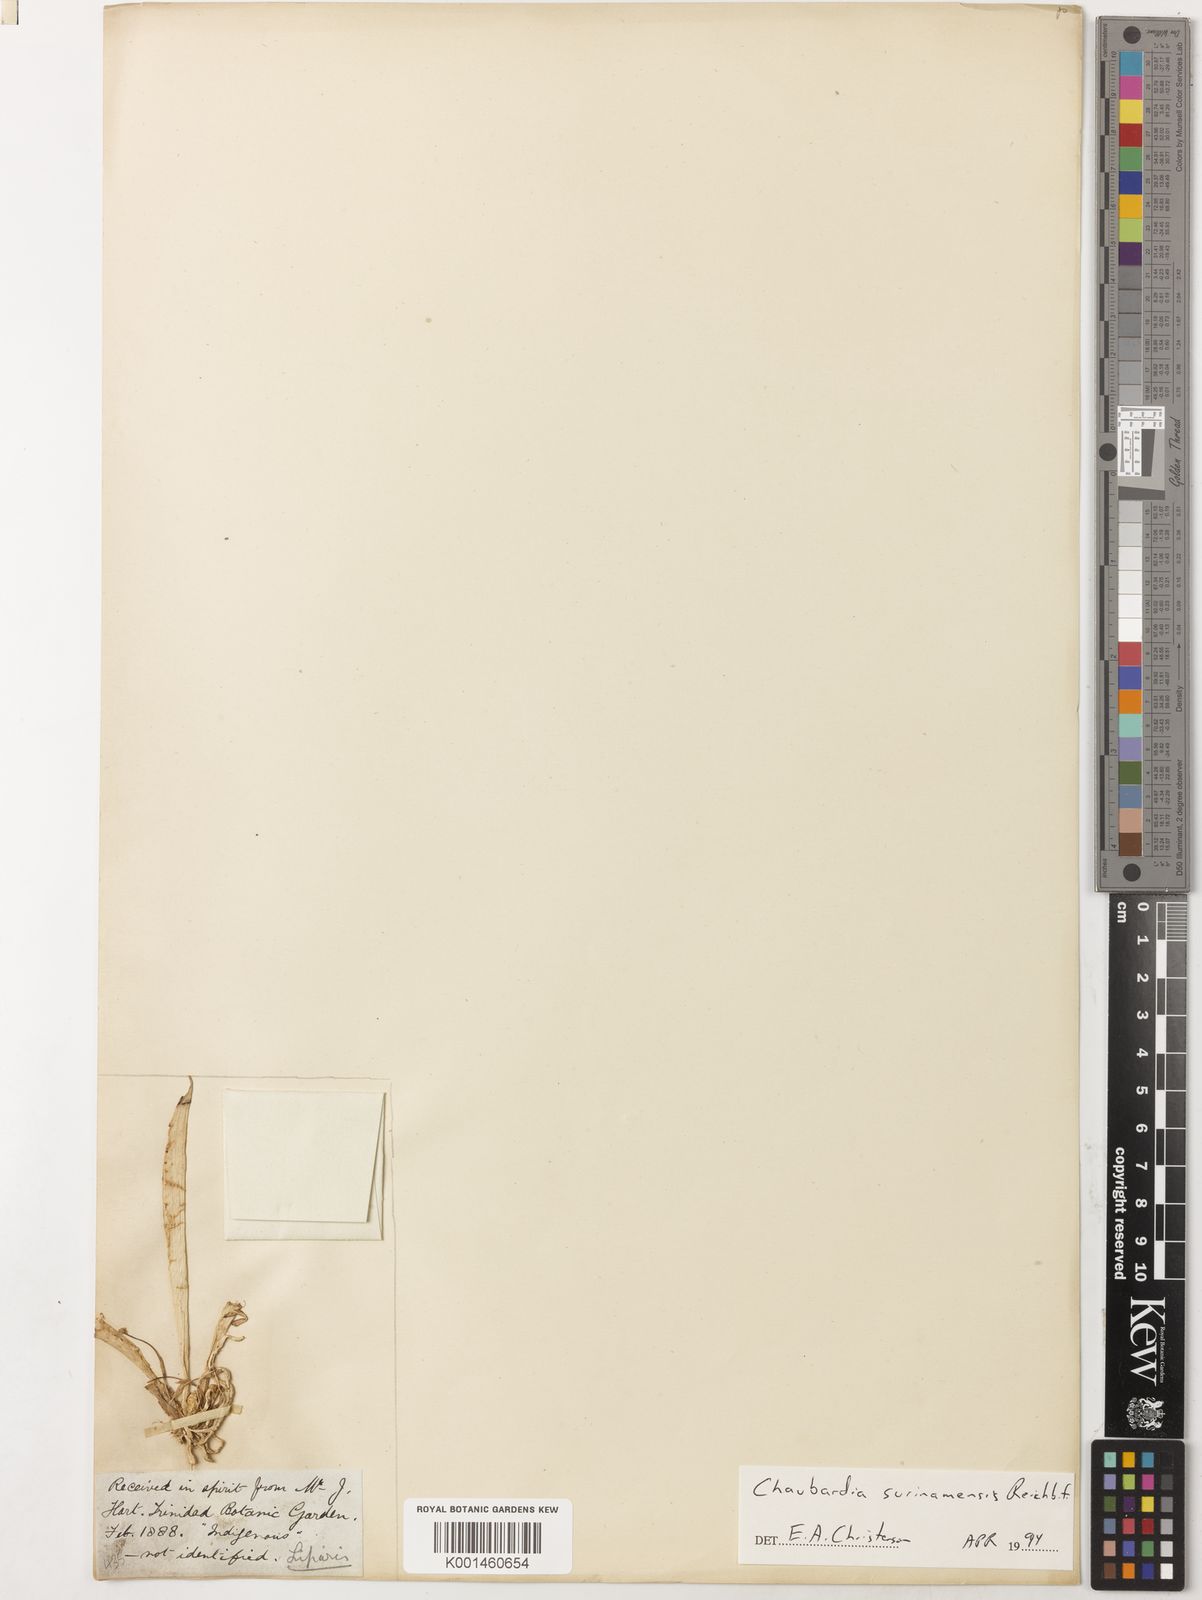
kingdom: Plantae
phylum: Tracheophyta
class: Liliopsida
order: Asparagales
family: Orchidaceae
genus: Chaubardia
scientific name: Chaubardia surinamensis
